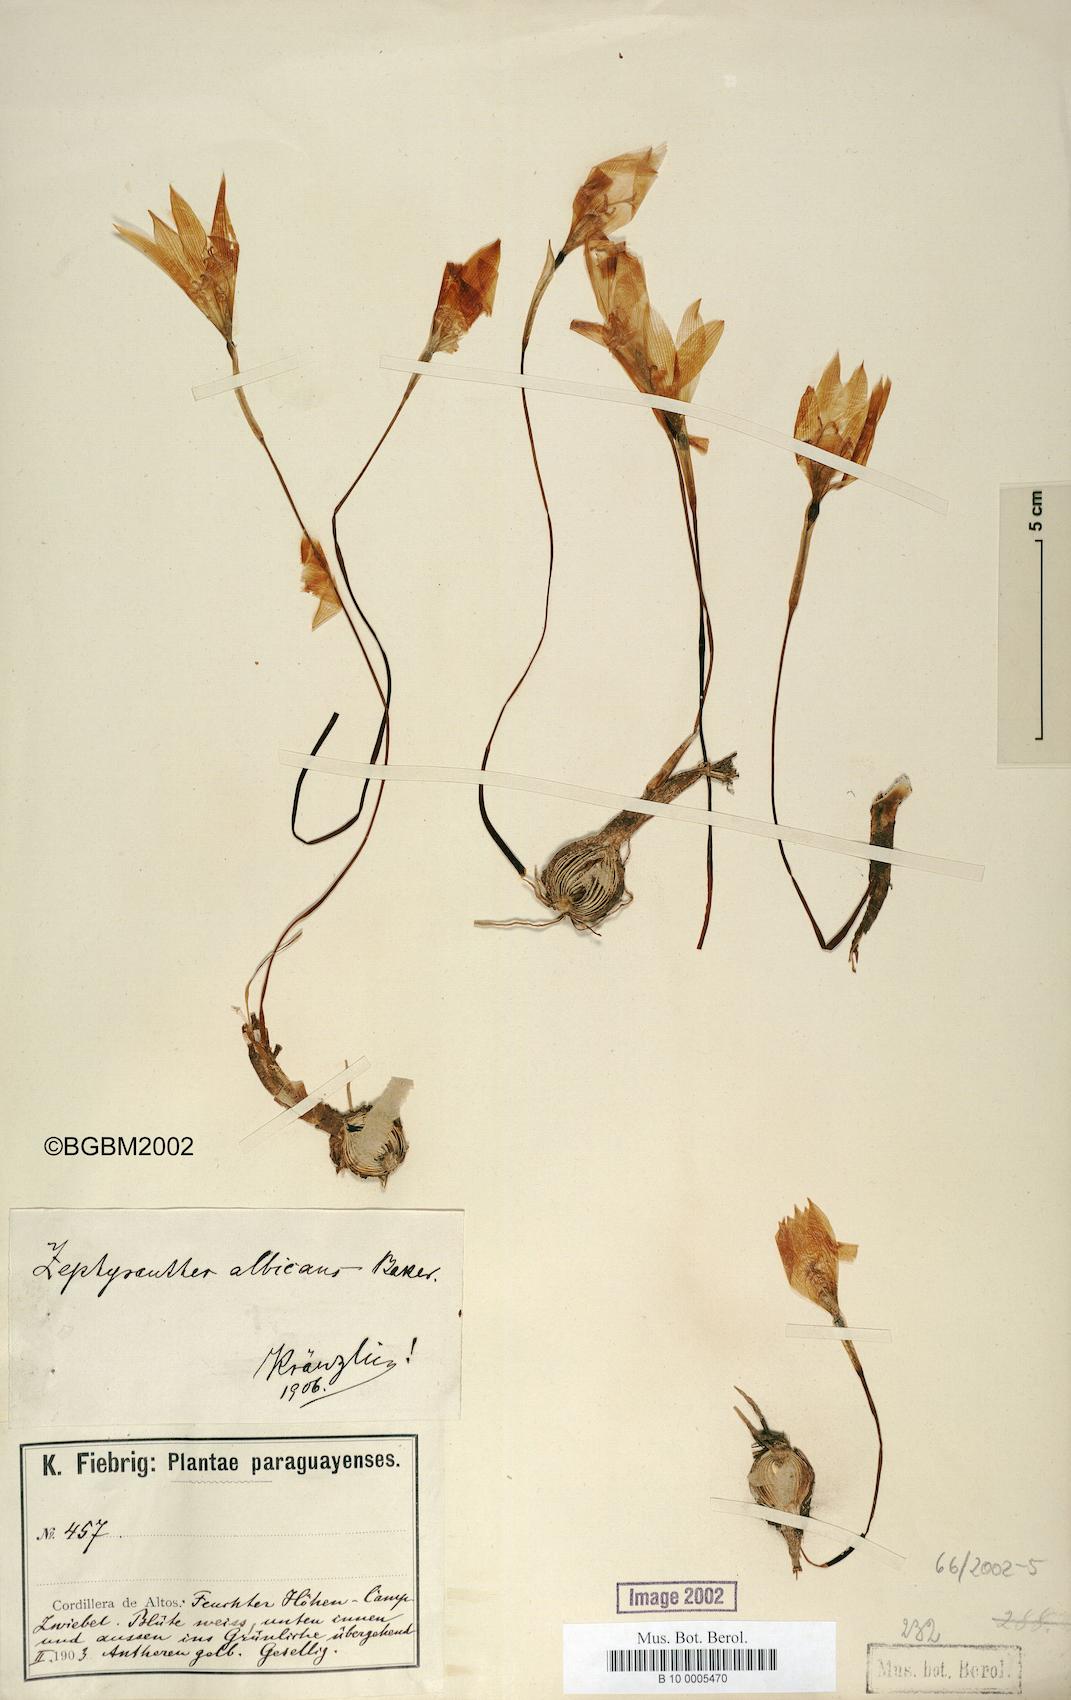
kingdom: Plantae
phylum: Tracheophyta
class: Liliopsida
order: Asparagales
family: Amaryllidaceae
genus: Pyrolirion
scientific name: Pyrolirion albicans
